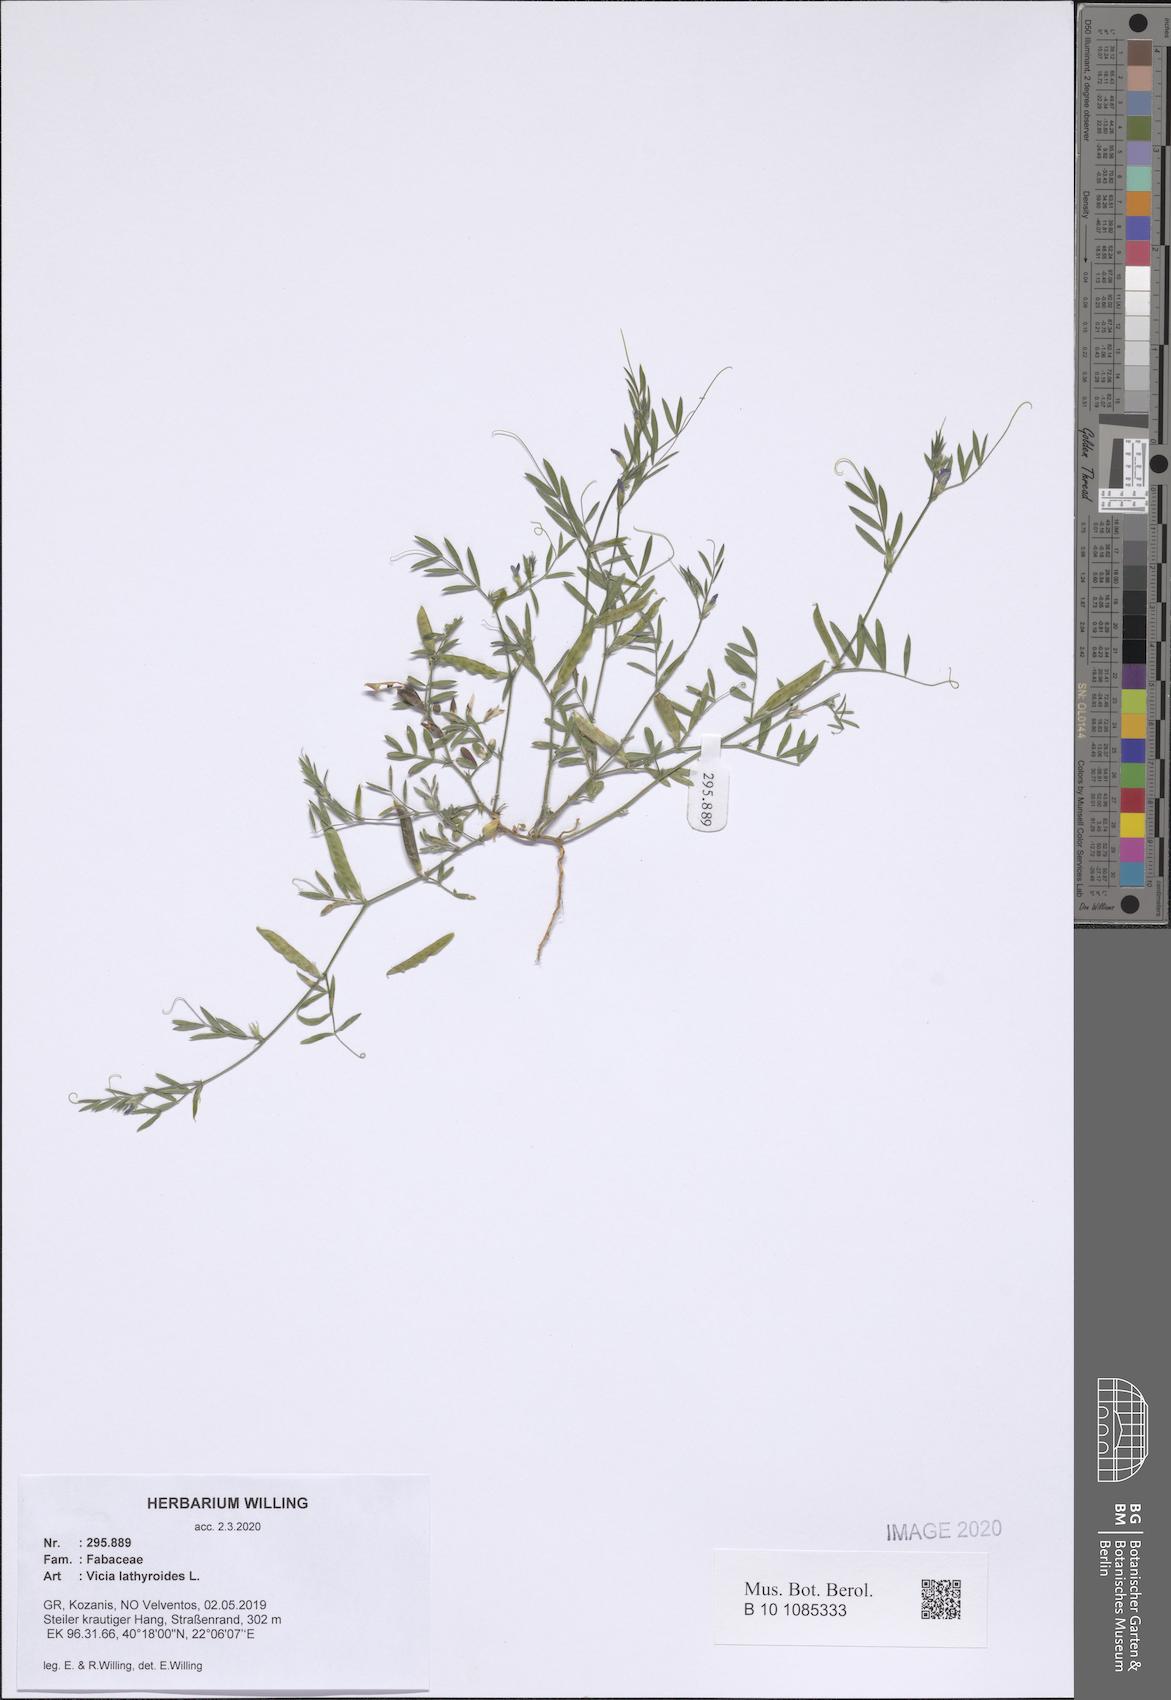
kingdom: Plantae
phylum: Tracheophyta
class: Magnoliopsida
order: Fabales
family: Fabaceae
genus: Vicia
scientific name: Vicia lathyroides
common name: Spring vetch
